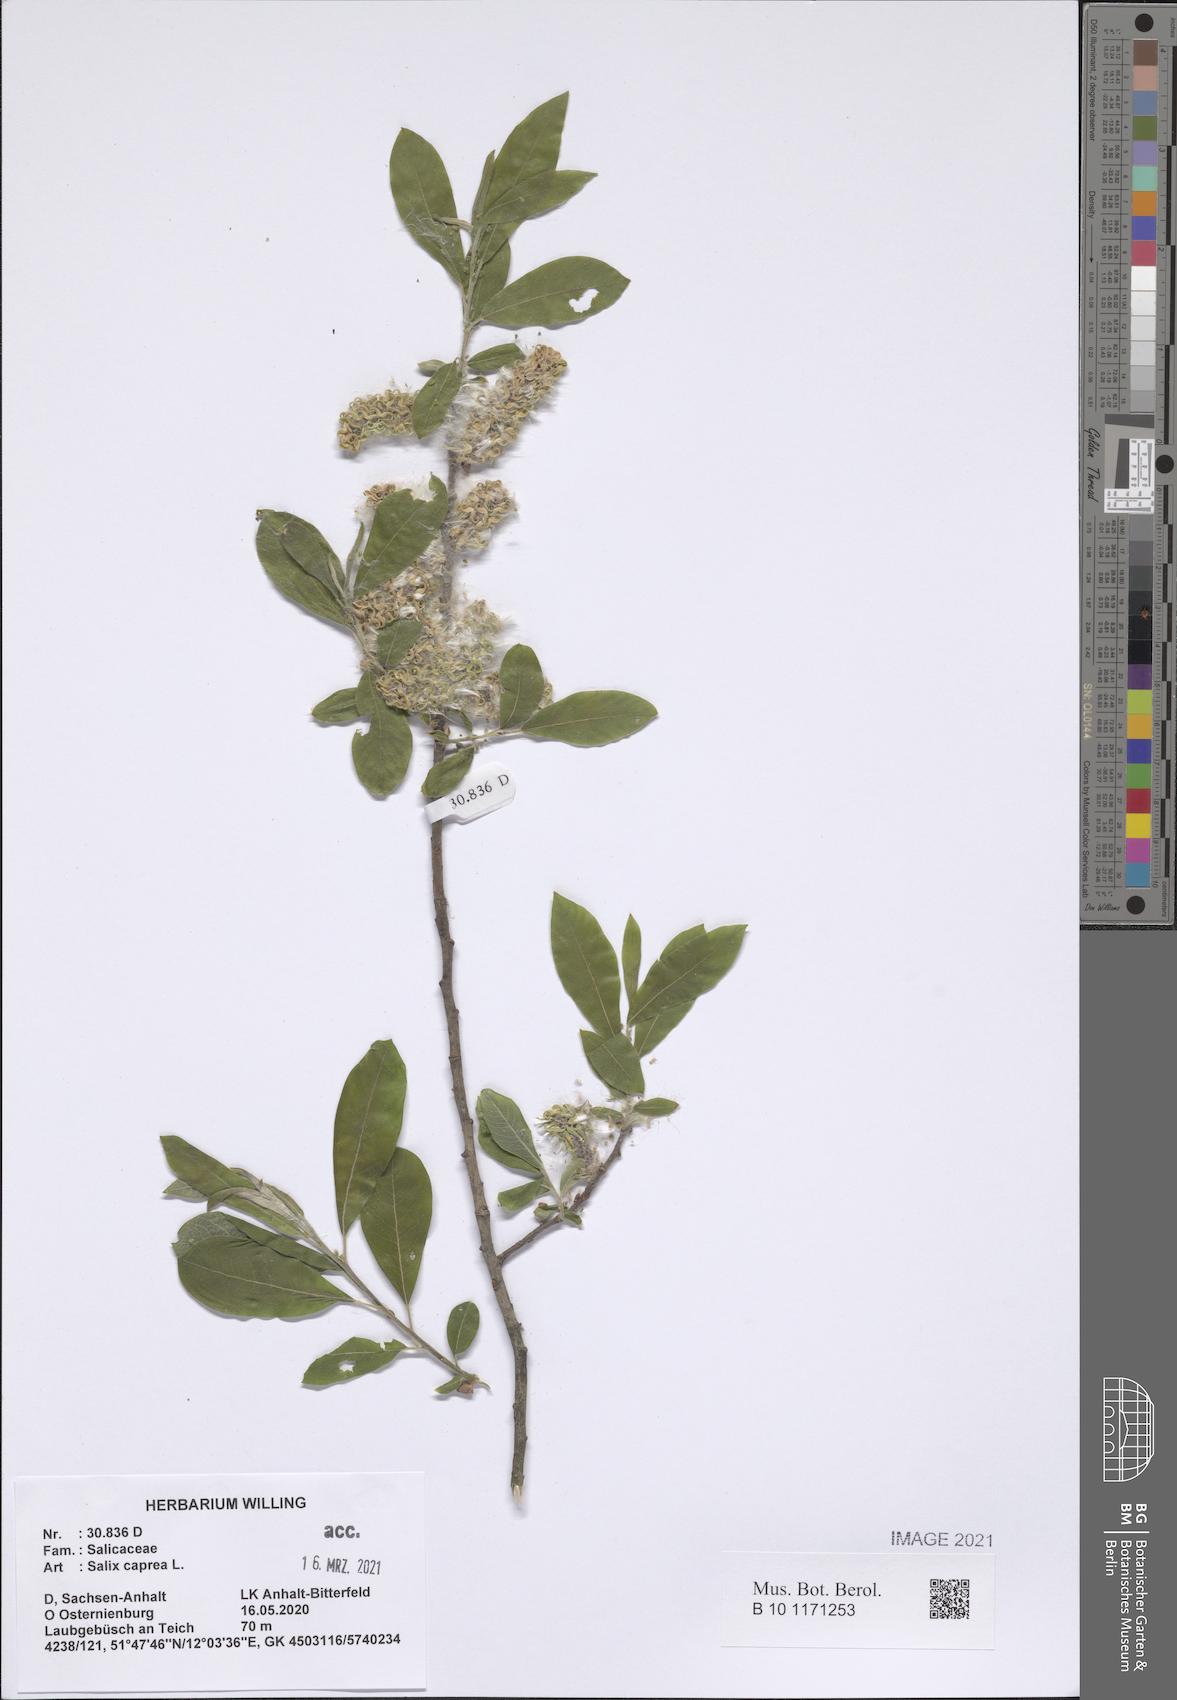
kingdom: Plantae
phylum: Tracheophyta
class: Magnoliopsida
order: Malpighiales
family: Salicaceae
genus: Salix
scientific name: Salix caprea
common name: Goat willow
